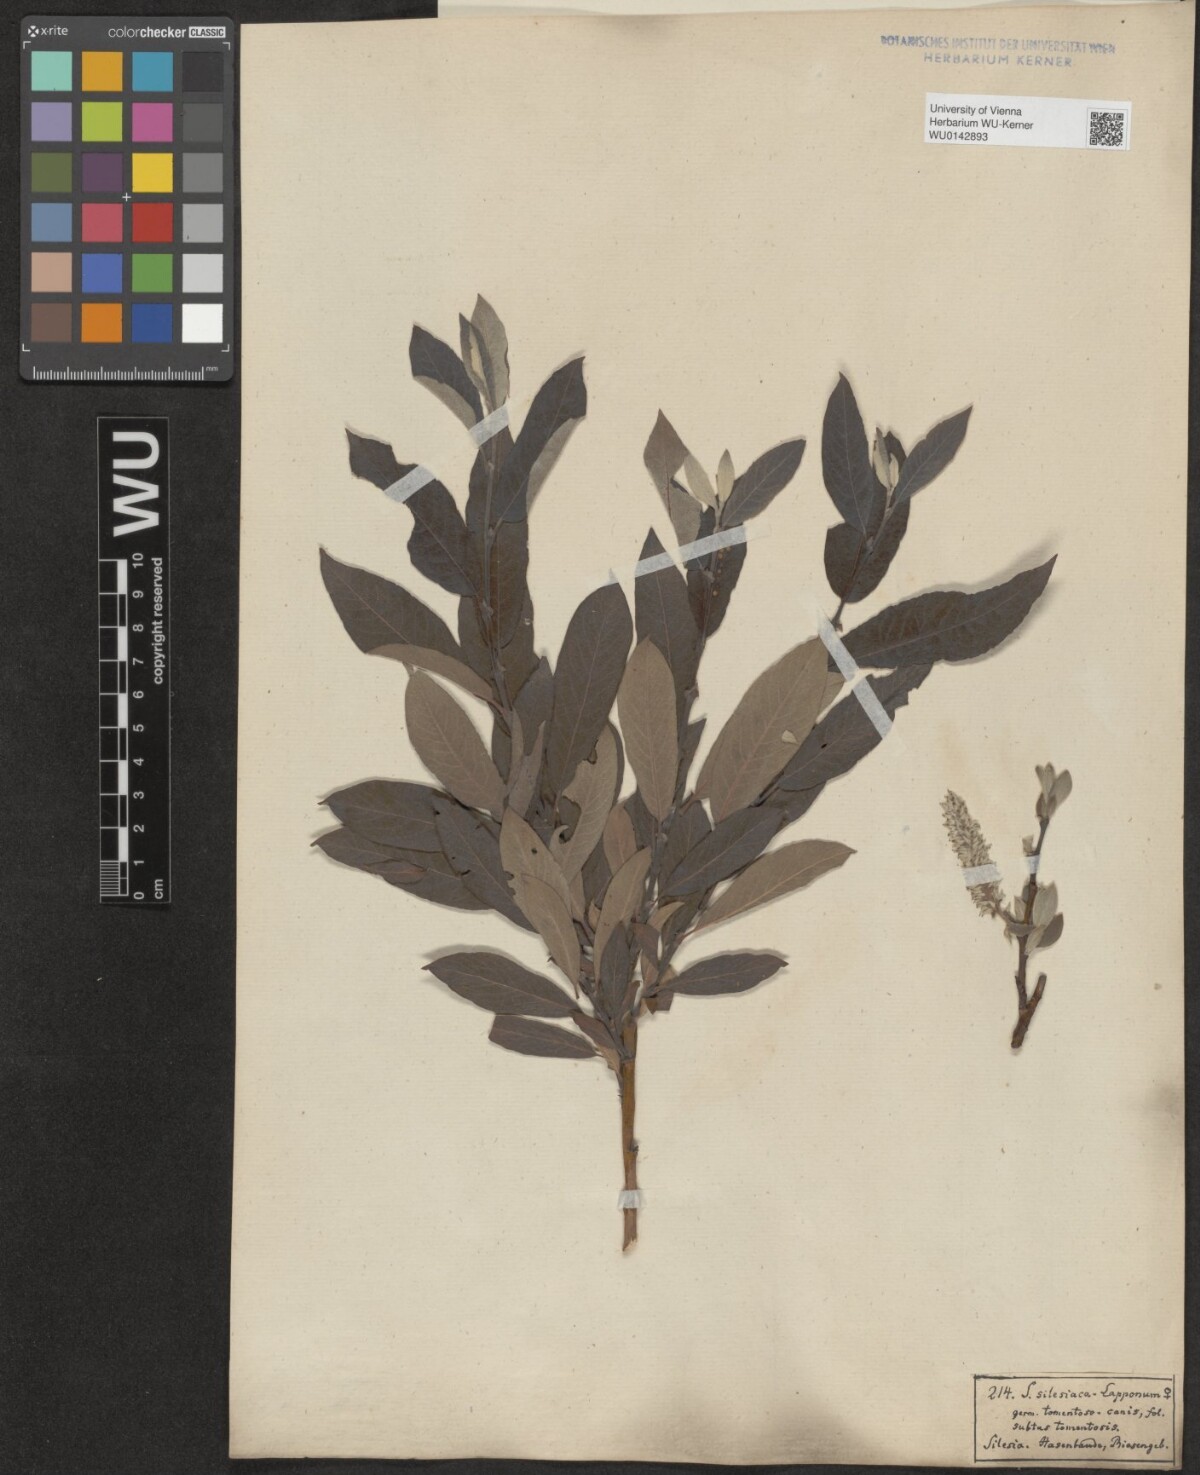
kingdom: Plantae
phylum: Tracheophyta
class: Magnoliopsida
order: Malpighiales
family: Salicaceae
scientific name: Salicaceae
